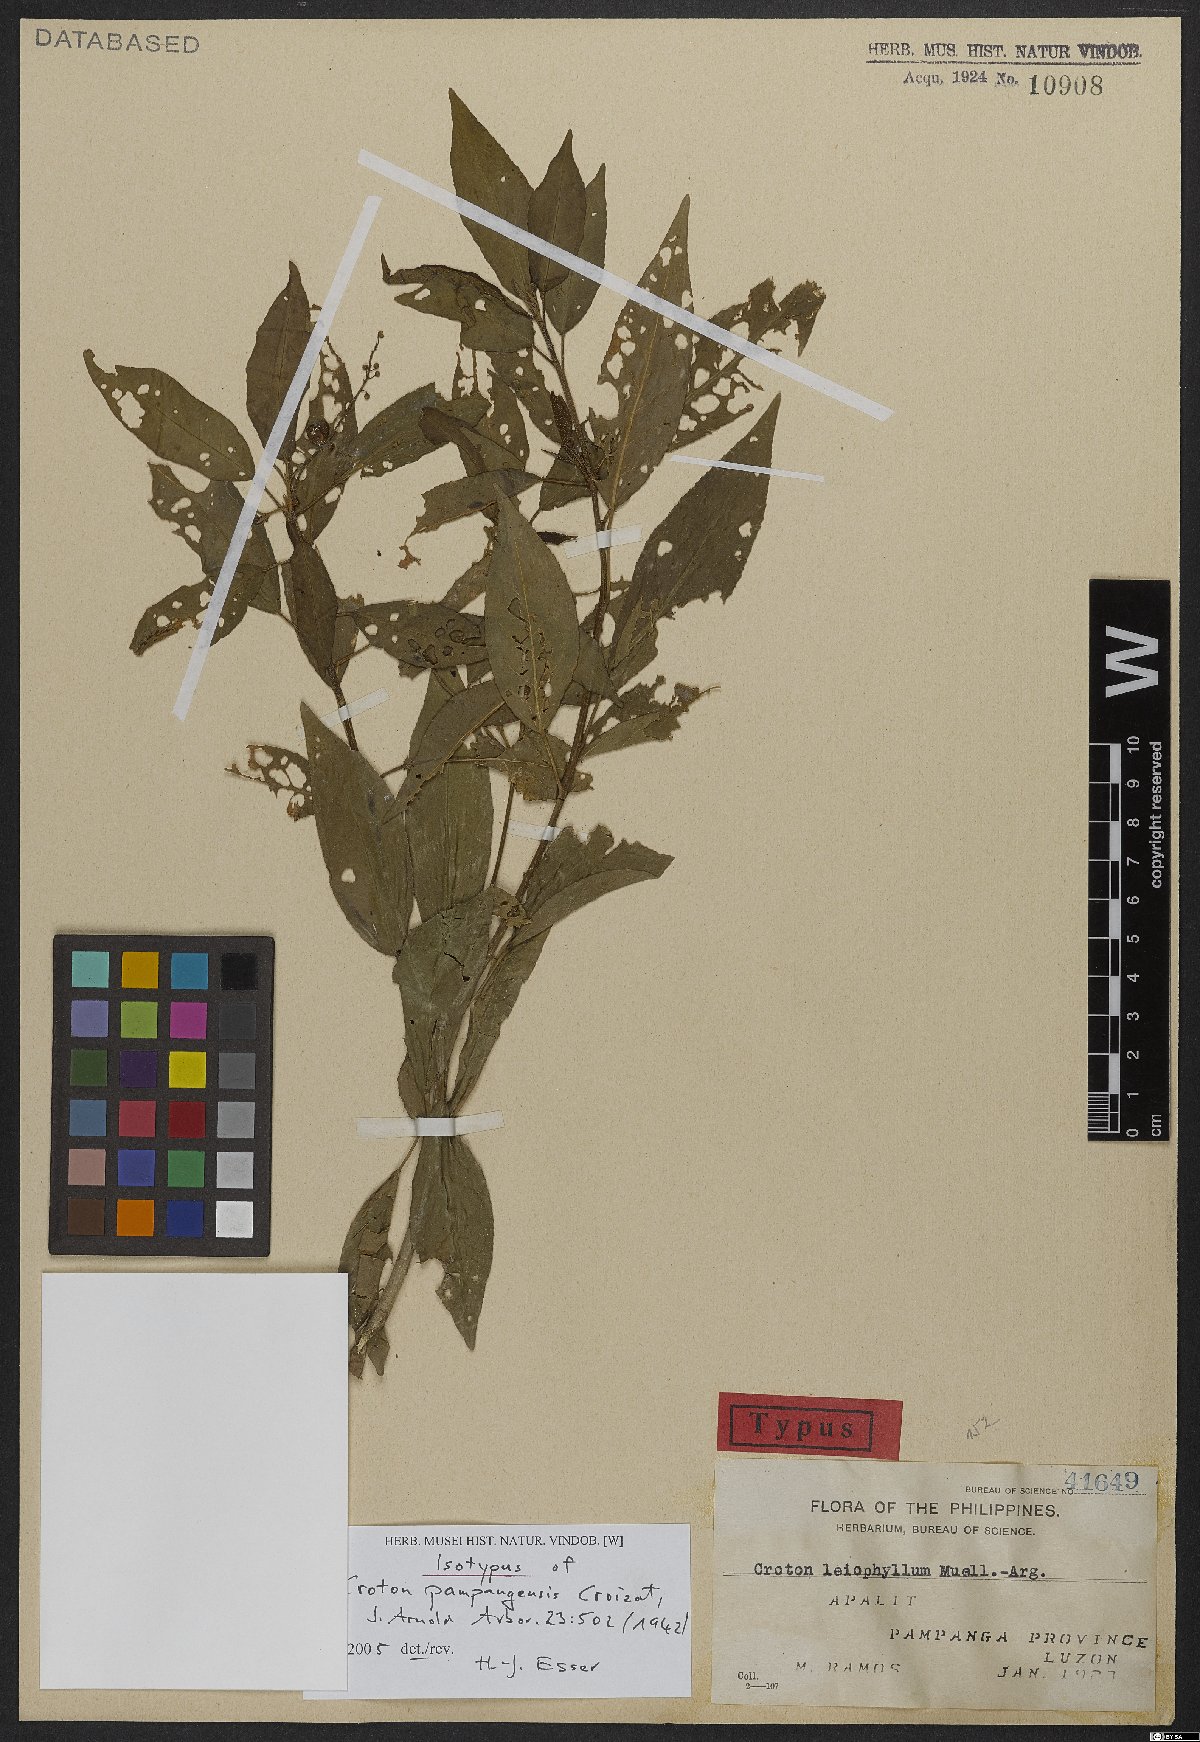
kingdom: Plantae
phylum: Tracheophyta
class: Magnoliopsida
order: Malpighiales
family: Euphorbiaceae
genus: Croton
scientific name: Croton pampangensis
